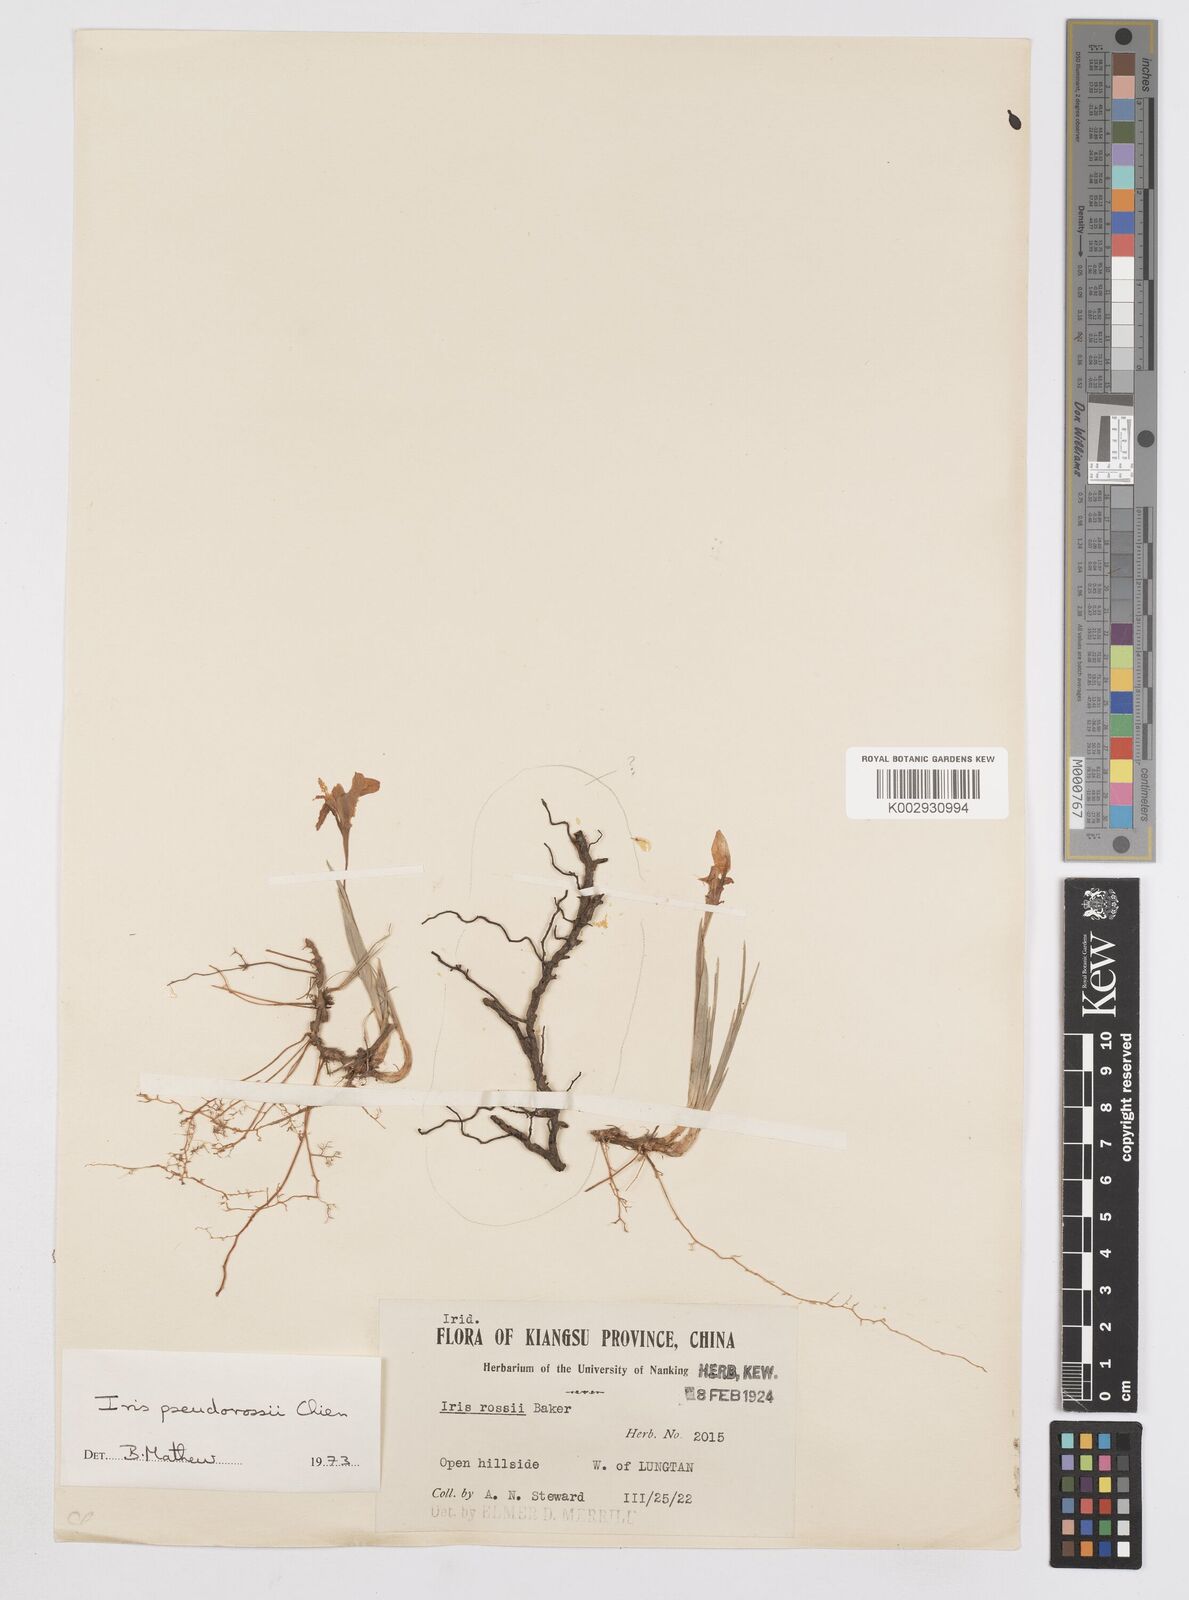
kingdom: Plantae
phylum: Tracheophyta
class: Liliopsida
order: Asparagales
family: Iridaceae
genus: Iris
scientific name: Iris proantha
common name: Small iris
